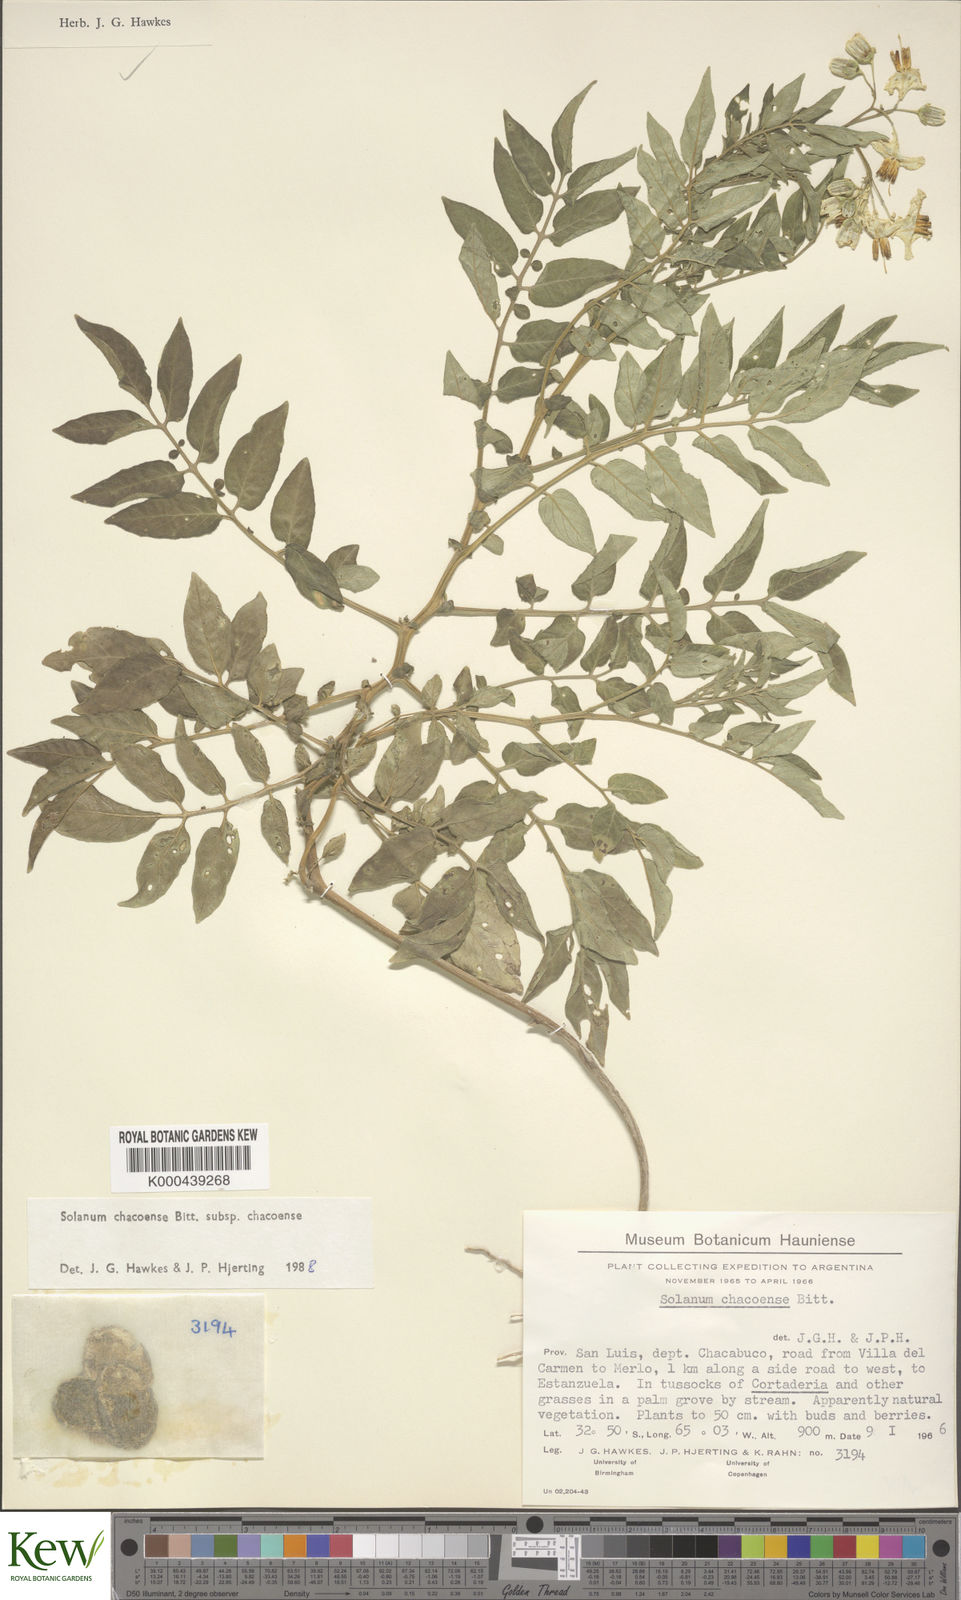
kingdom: Plantae
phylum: Tracheophyta
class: Magnoliopsida
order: Solanales
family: Solanaceae
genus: Solanum
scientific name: Solanum chacoense
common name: Chaco potato
